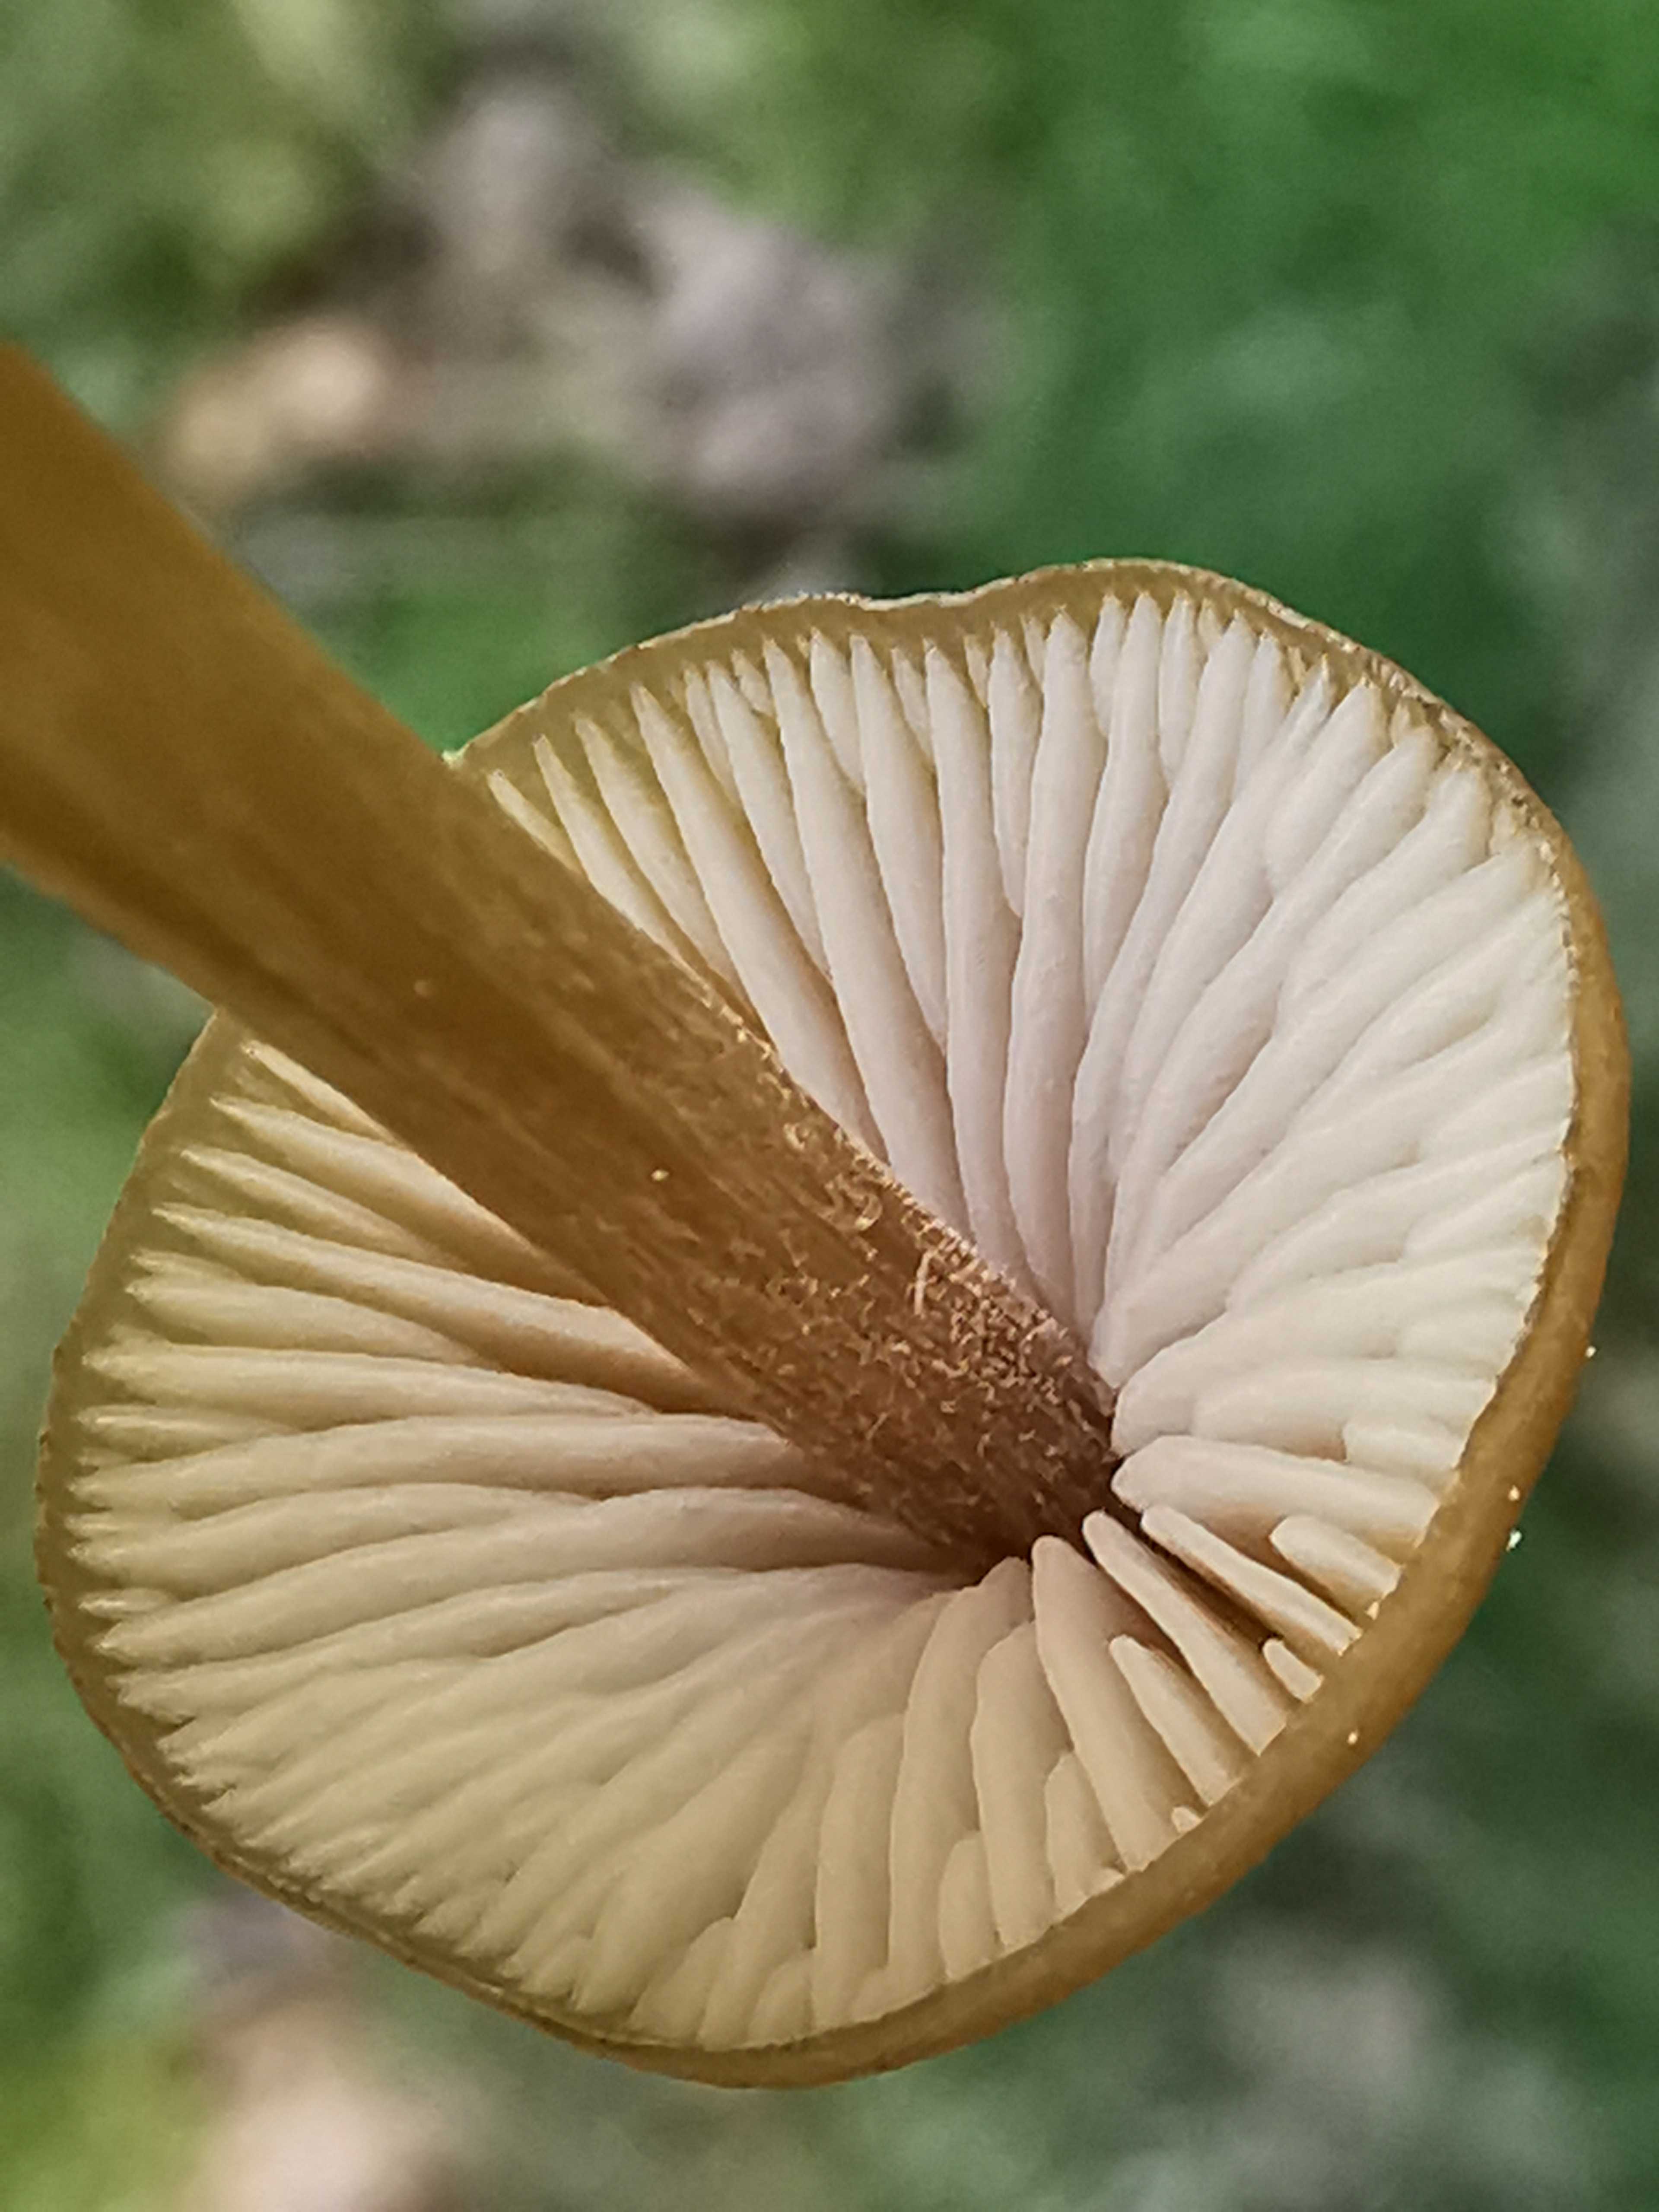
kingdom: Fungi
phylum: Basidiomycota
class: Agaricomycetes
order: Agaricales
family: Entolomataceae
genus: Entoloma
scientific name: Entoloma
